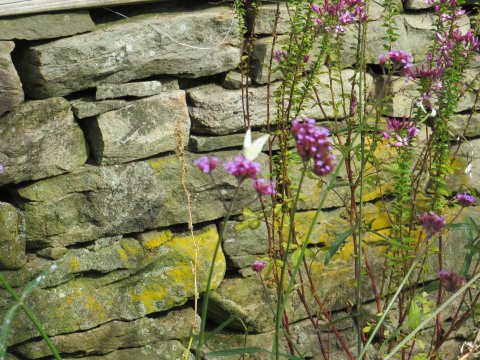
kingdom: Animalia
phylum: Arthropoda
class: Insecta
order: Lepidoptera
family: Pieridae
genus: Pieris
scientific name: Pieris rapae
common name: Cabbage White
